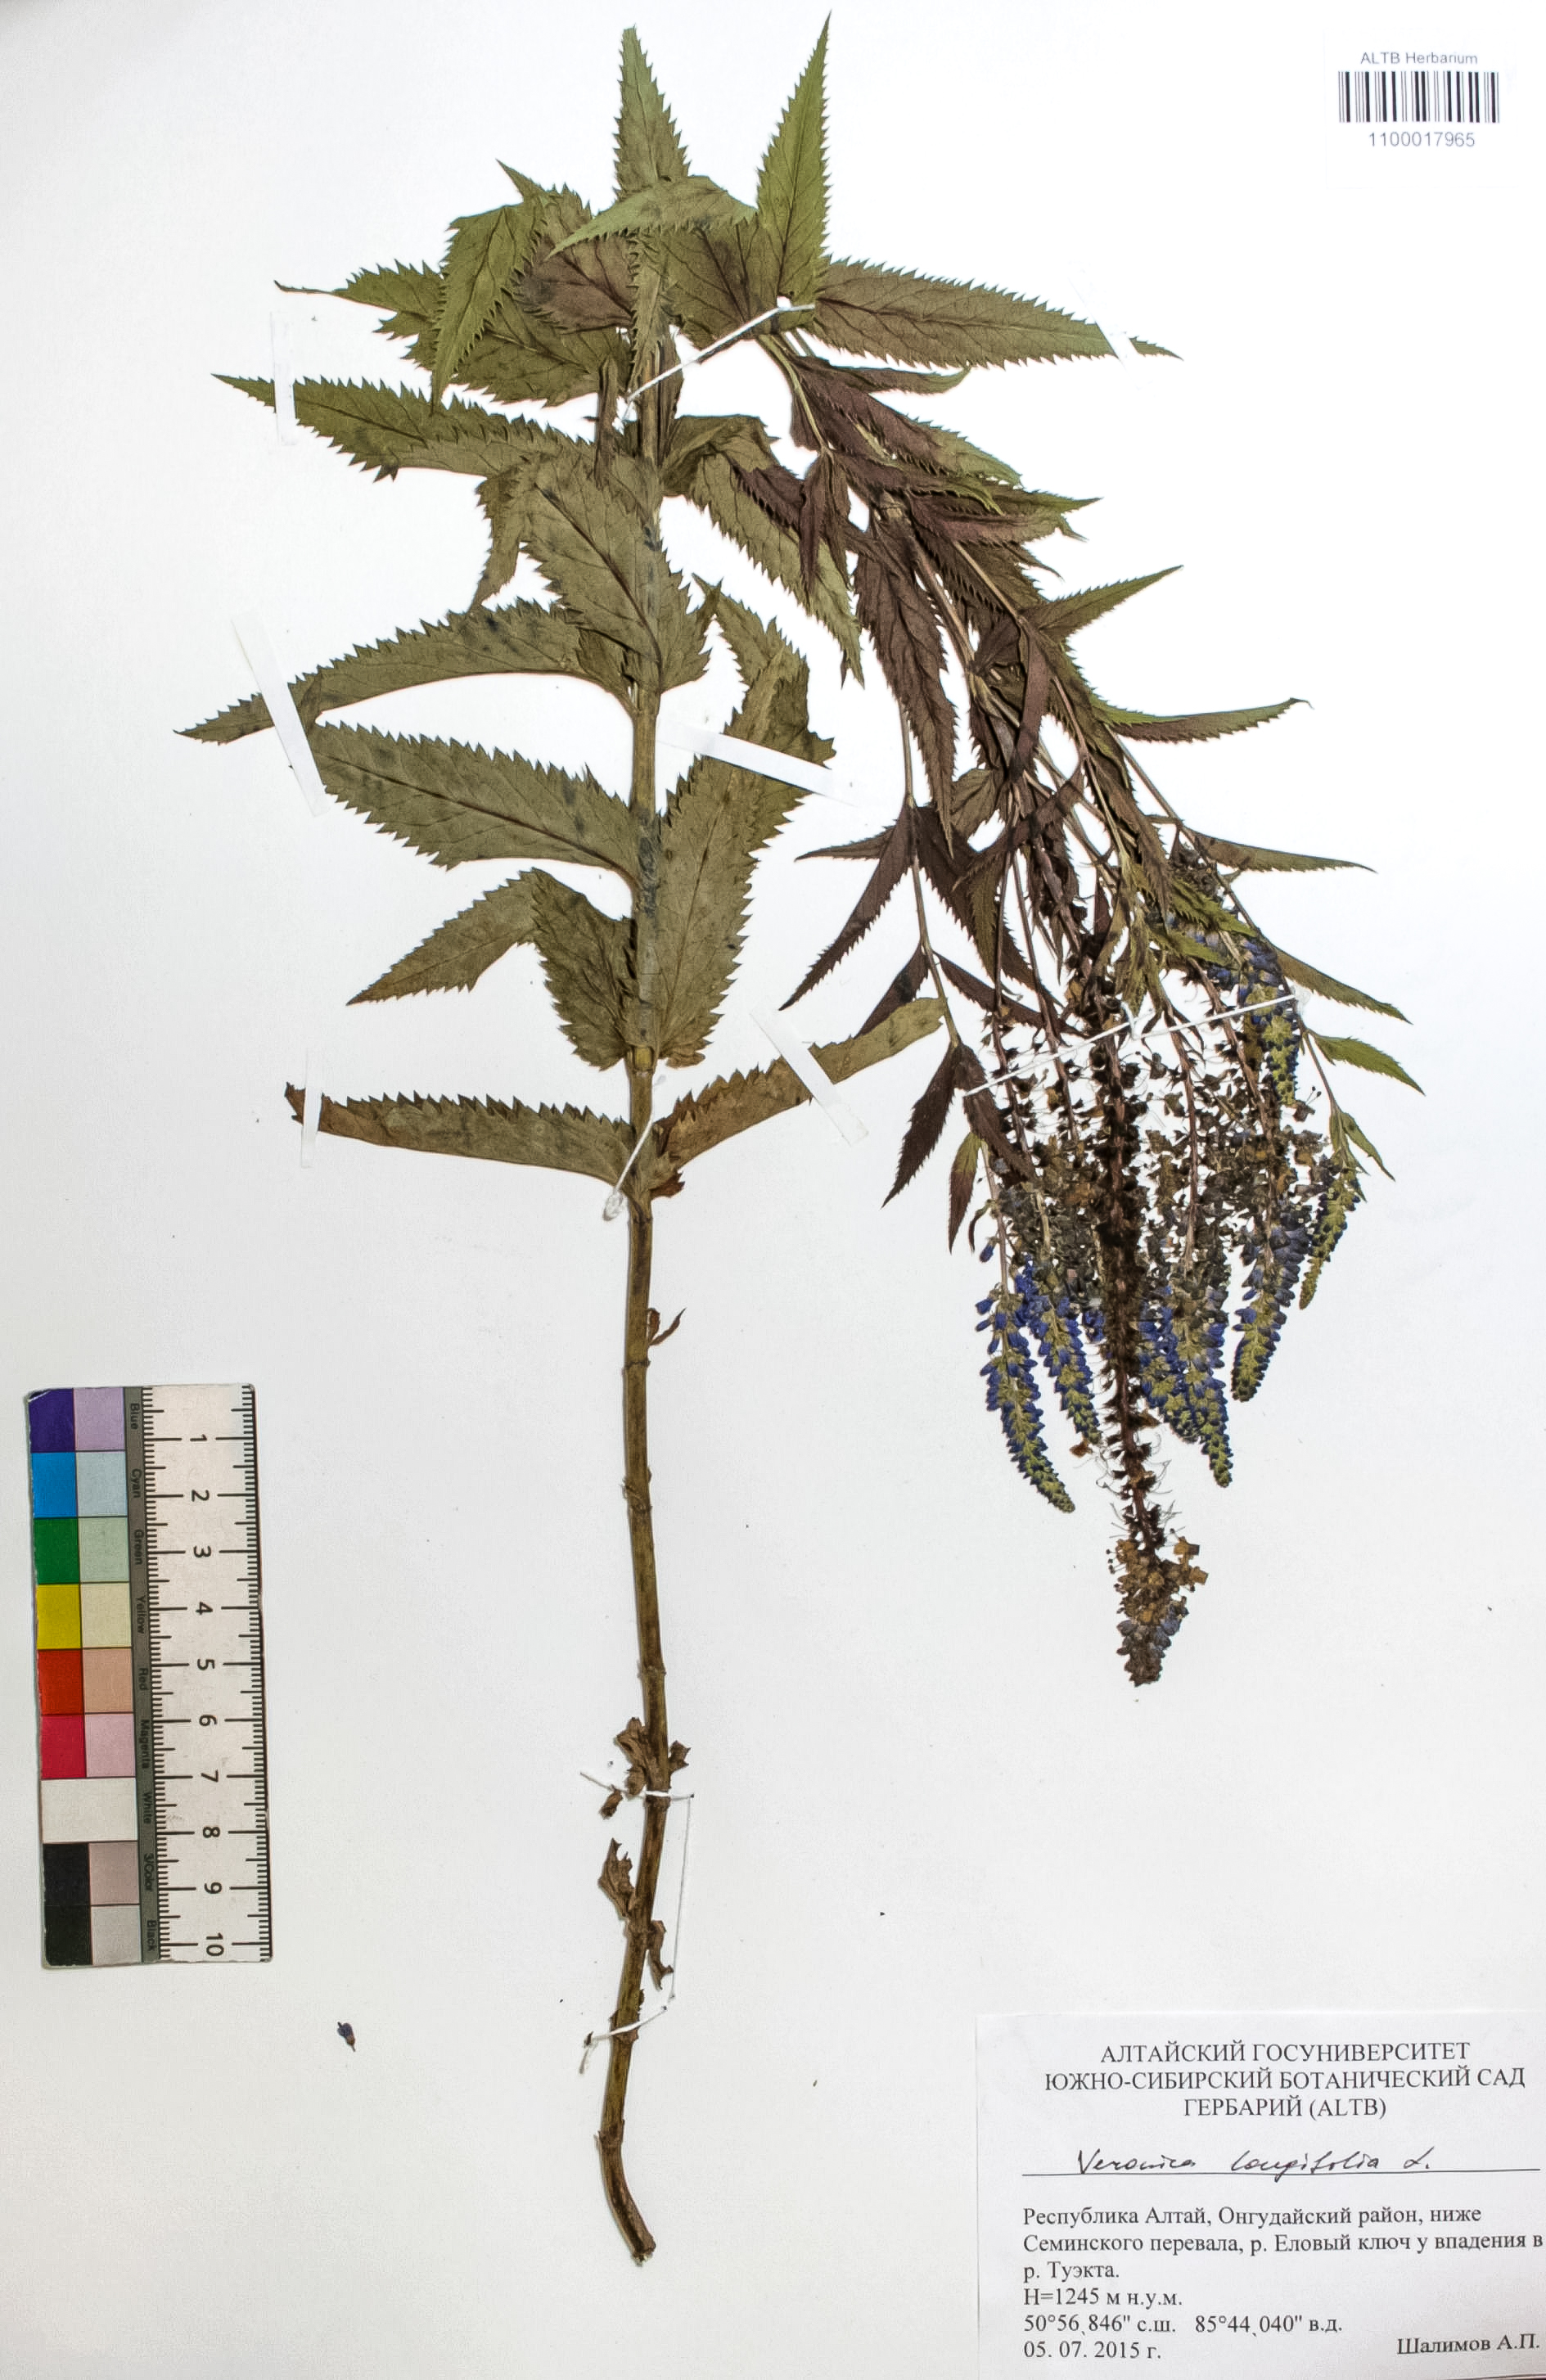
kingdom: Plantae
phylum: Tracheophyta
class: Magnoliopsida
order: Lamiales
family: Plantaginaceae
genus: Veronica
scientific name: Veronica longifolia
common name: Garden speedwell
